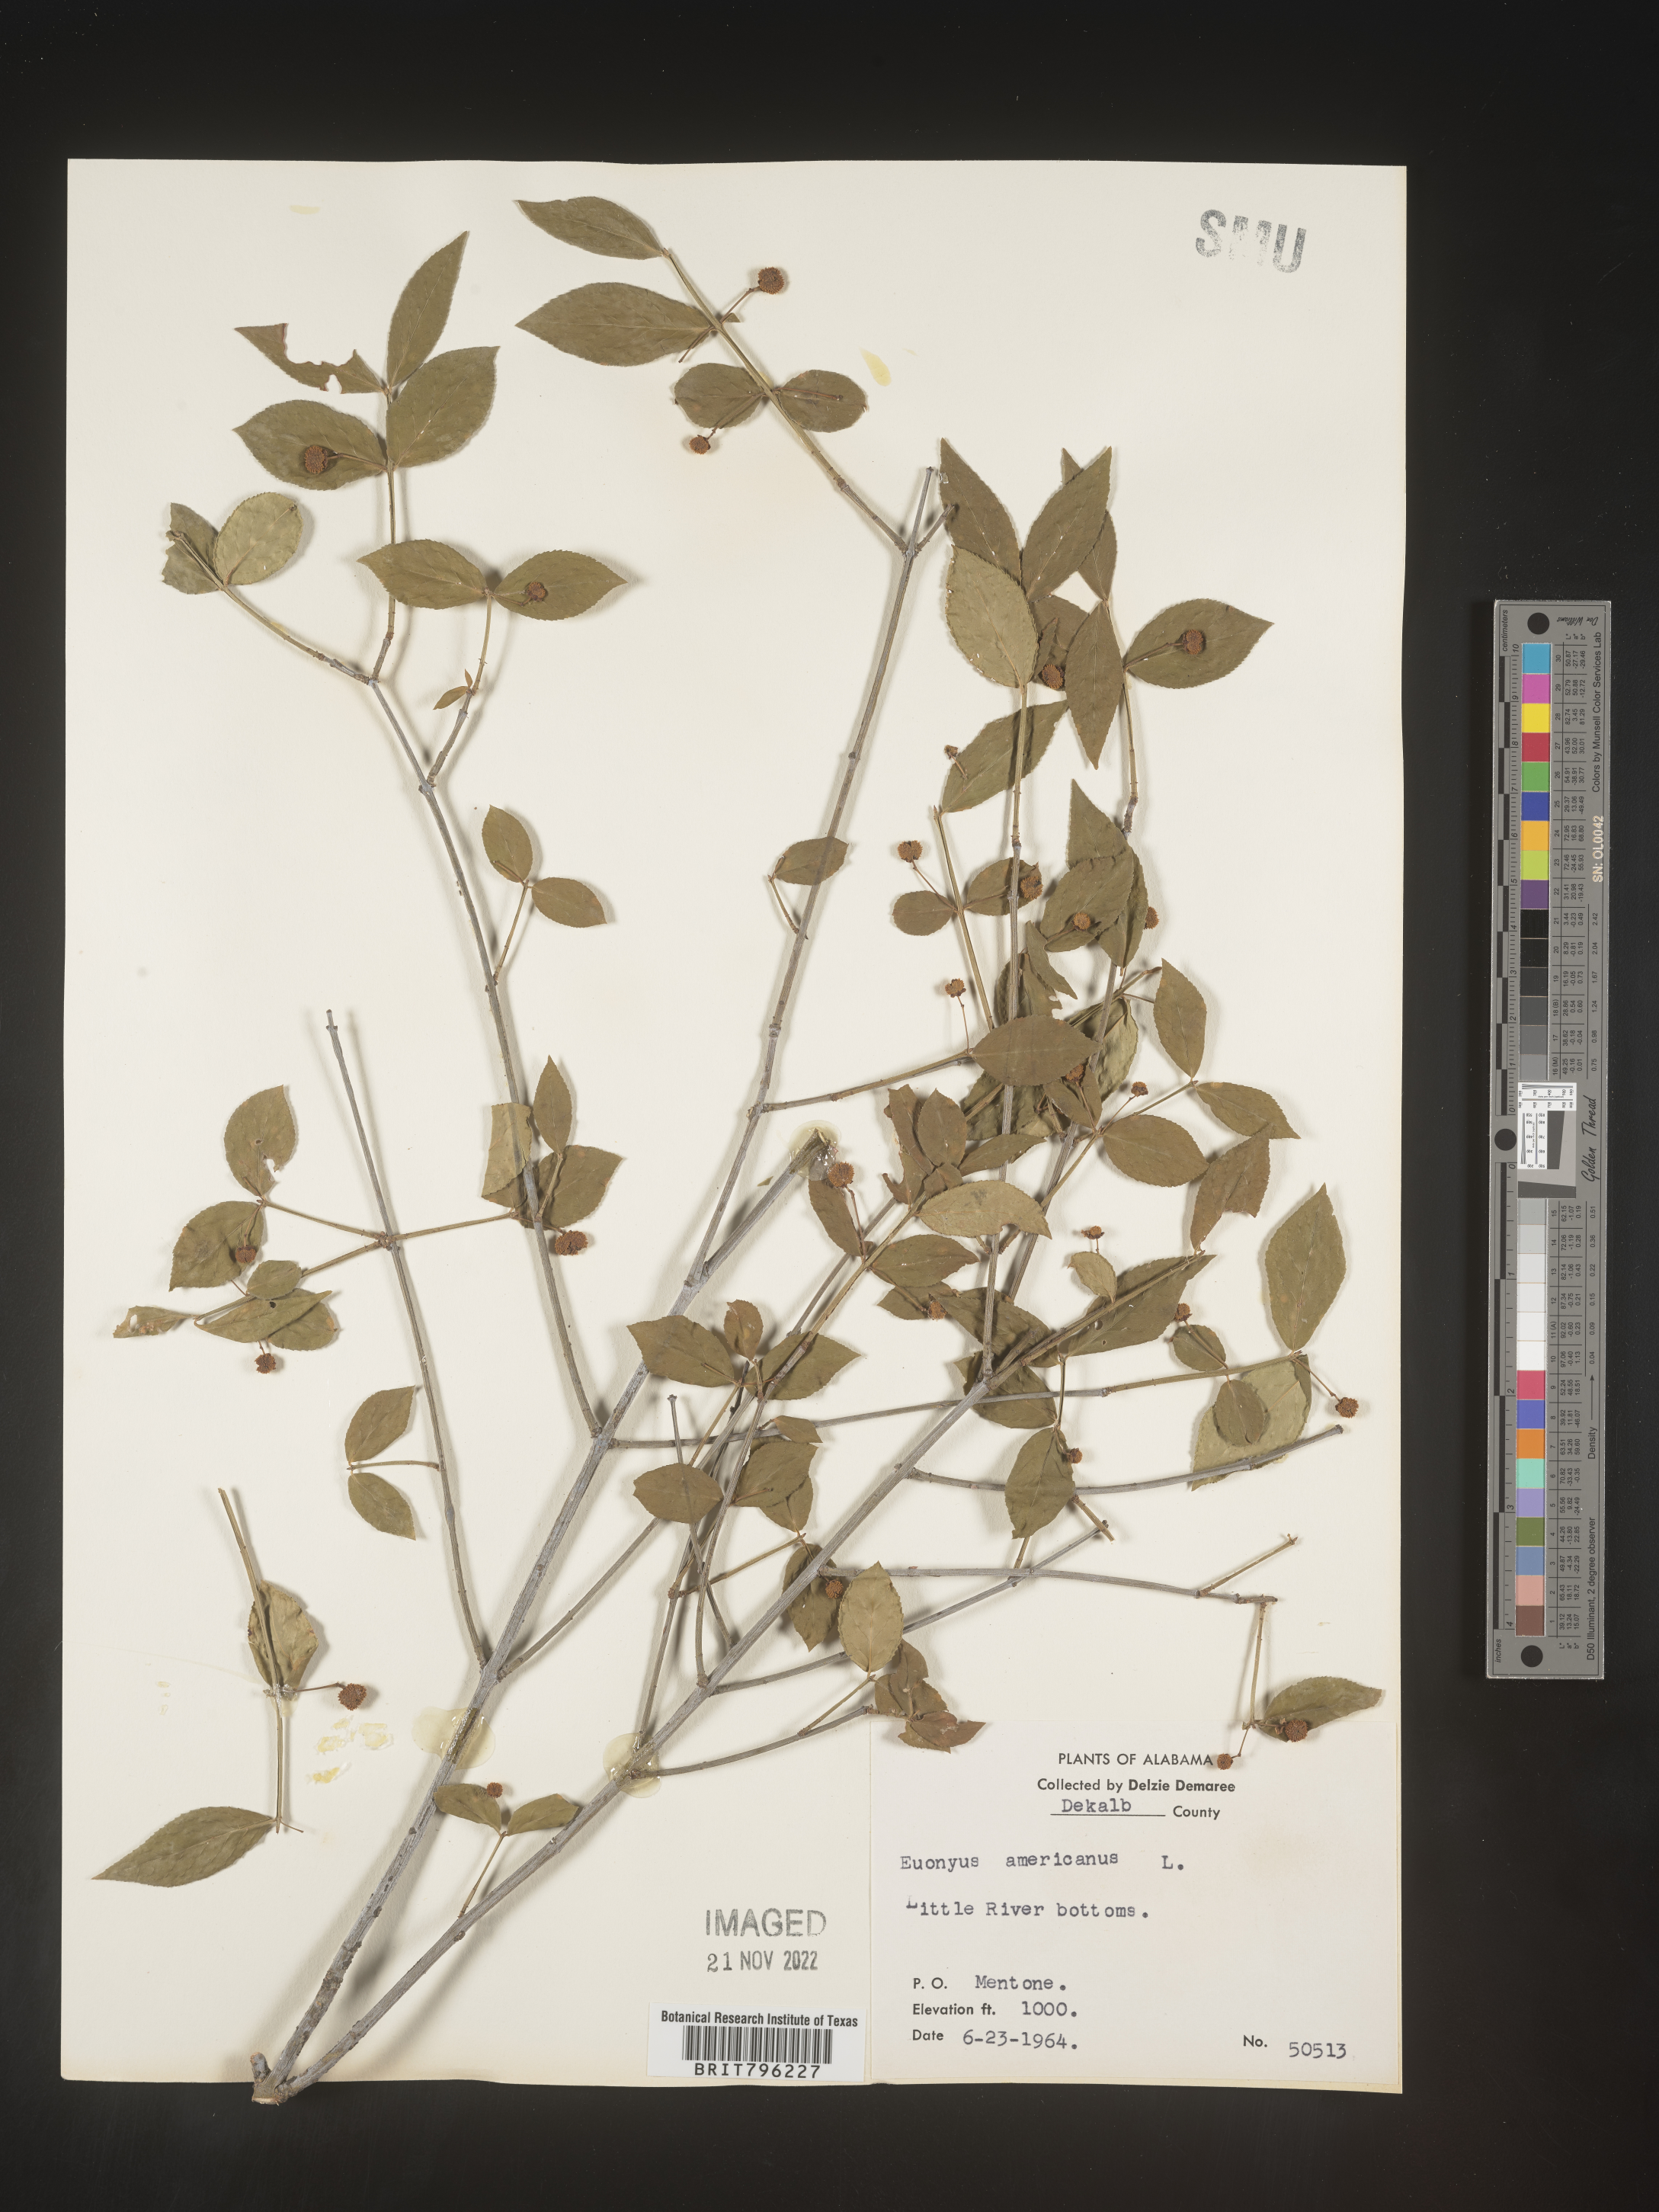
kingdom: Plantae
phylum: Tracheophyta
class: Magnoliopsida
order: Celastrales
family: Celastraceae
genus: Euonymus
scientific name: Euonymus americanus
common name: Bursting-heart
